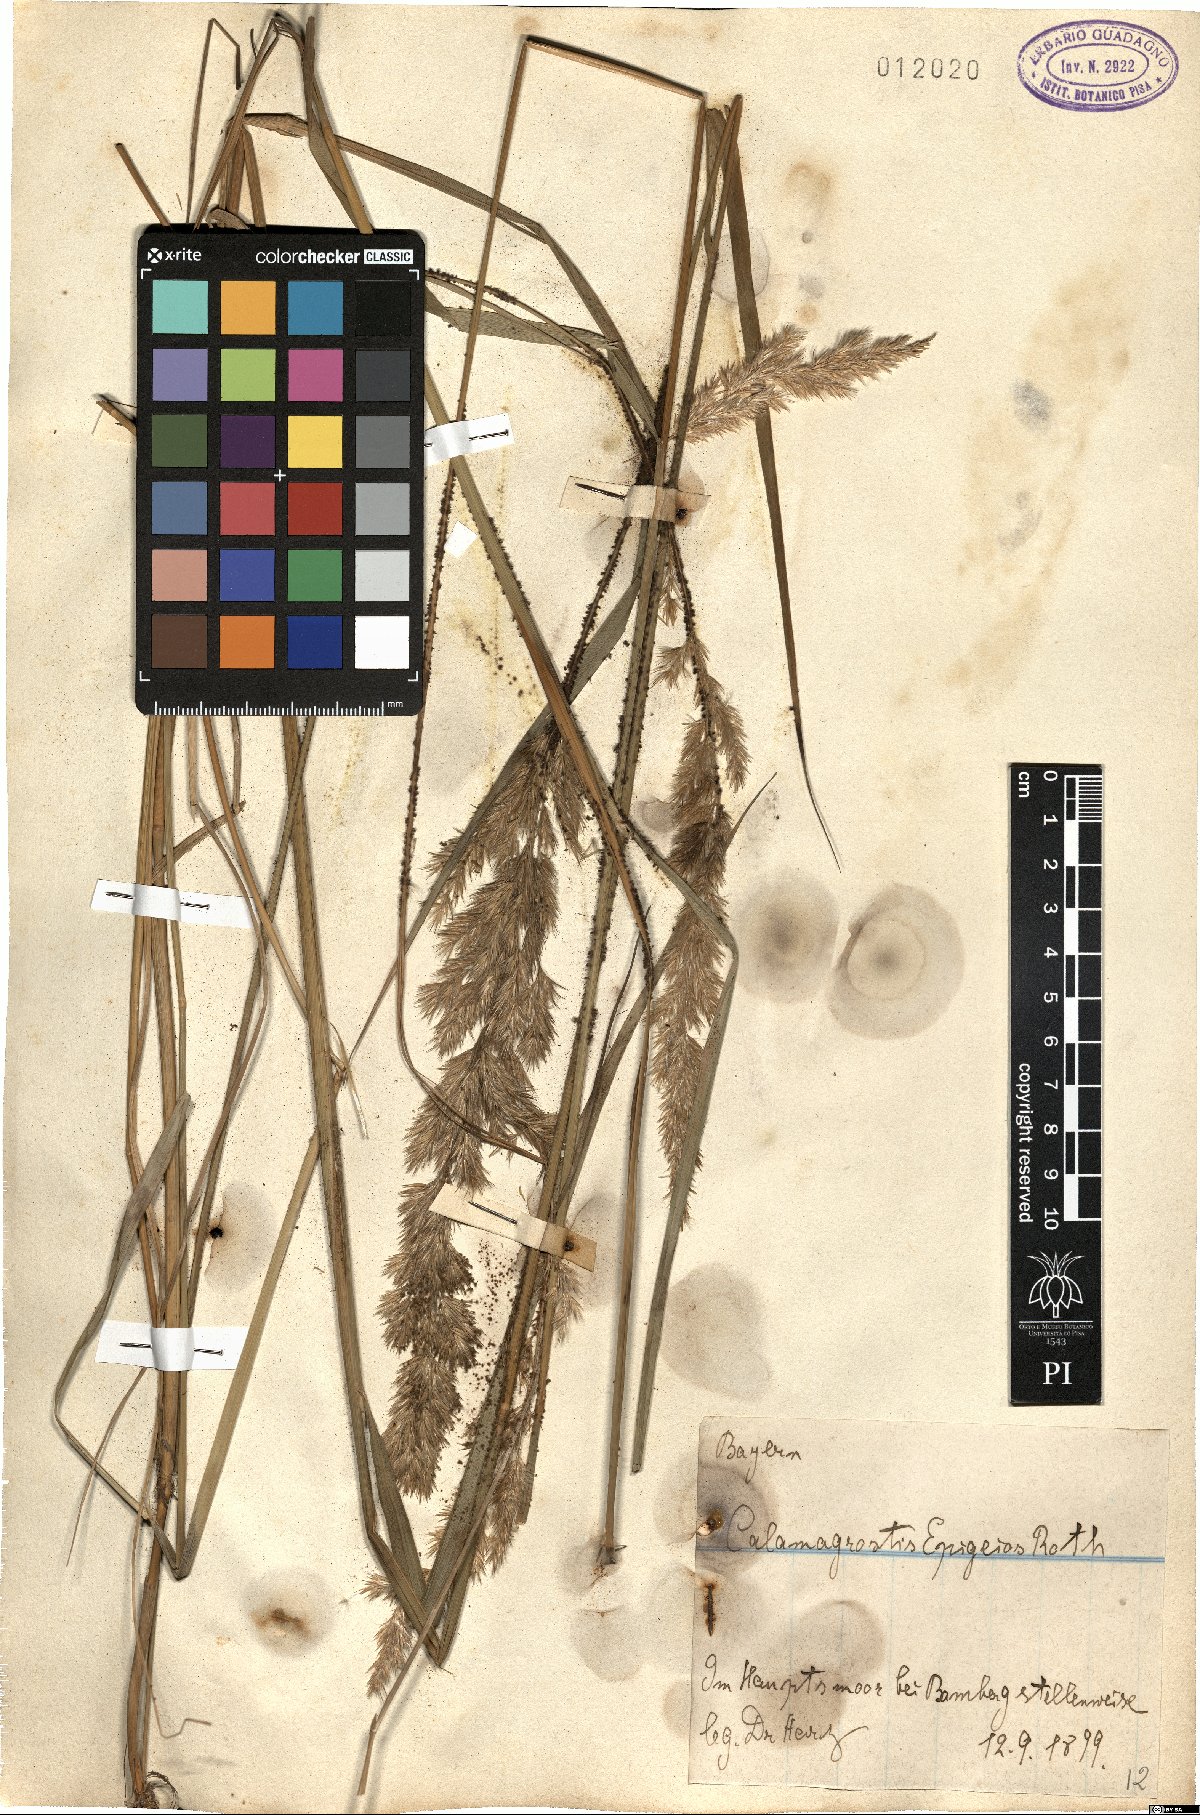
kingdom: Plantae
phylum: Tracheophyta
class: Liliopsida
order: Poales
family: Poaceae
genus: Calamagrostis
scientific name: Calamagrostis epigejos
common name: Wood small-reed
